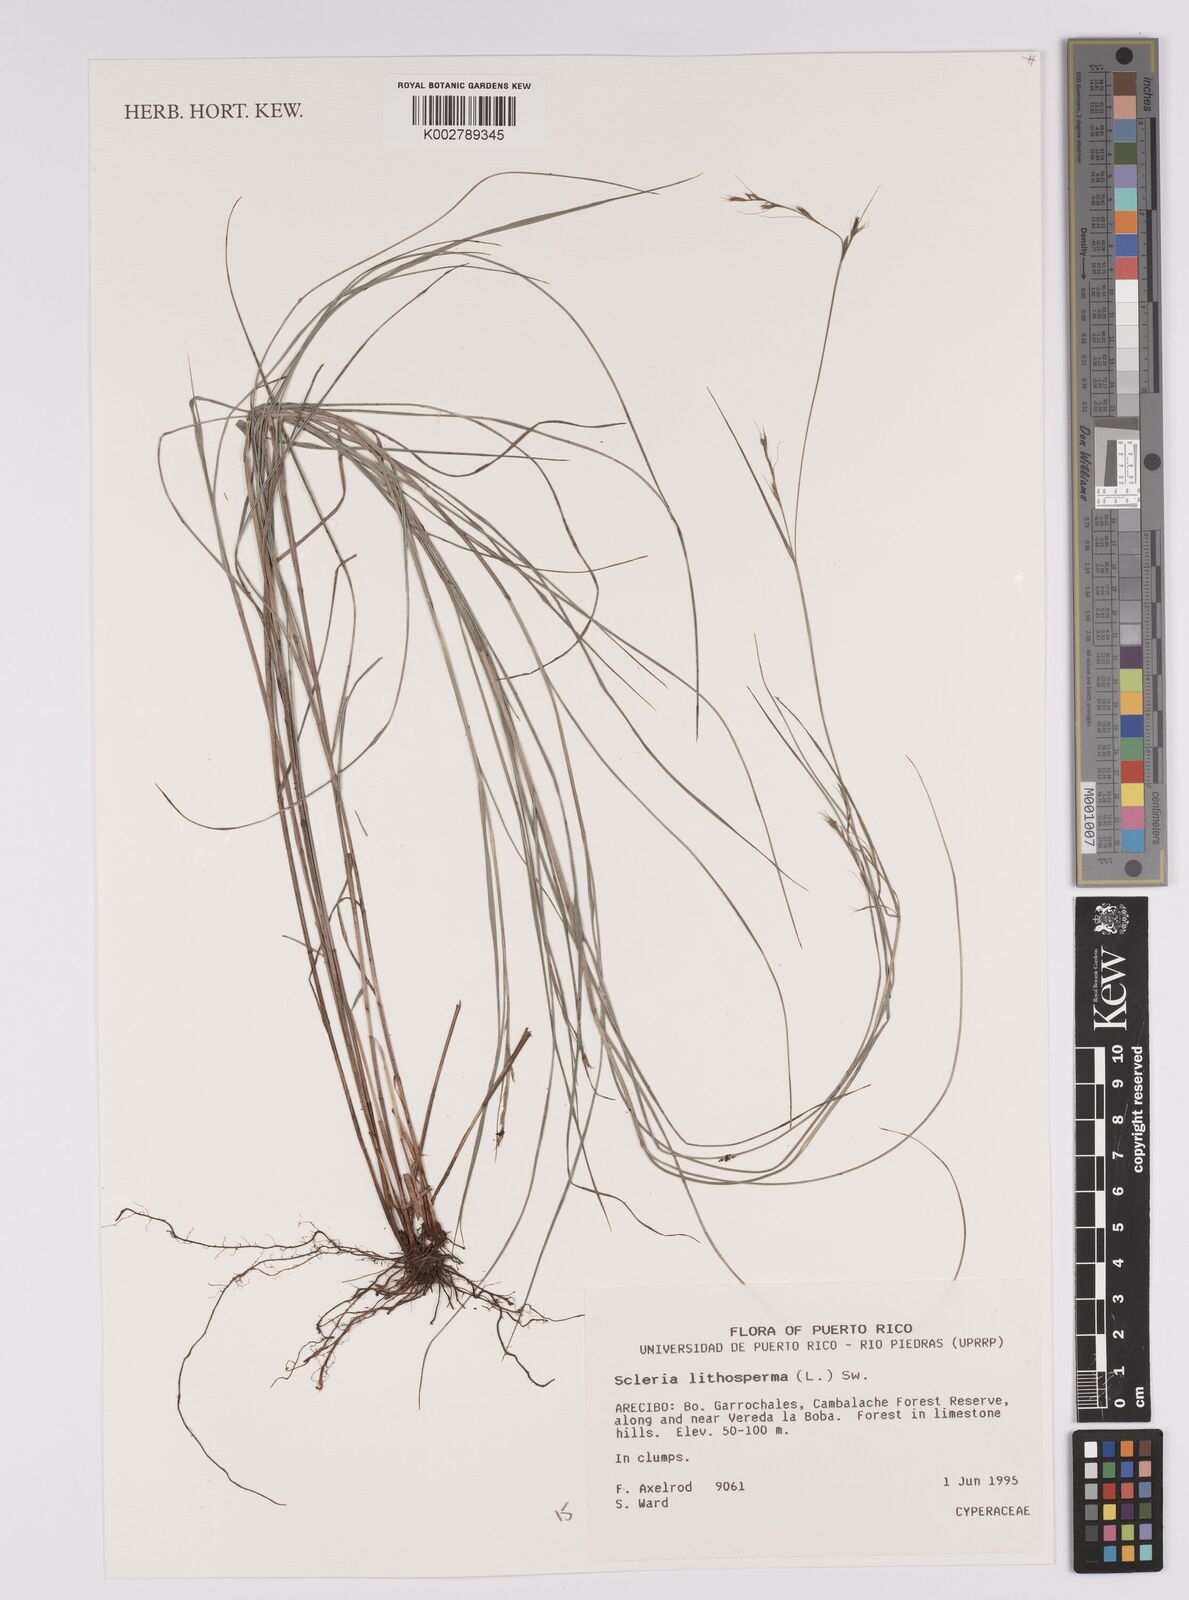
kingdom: Plantae
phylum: Tracheophyta
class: Liliopsida
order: Poales
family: Cyperaceae
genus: Scleria
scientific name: Scleria lithosperma
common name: Florida keys nut-rush
